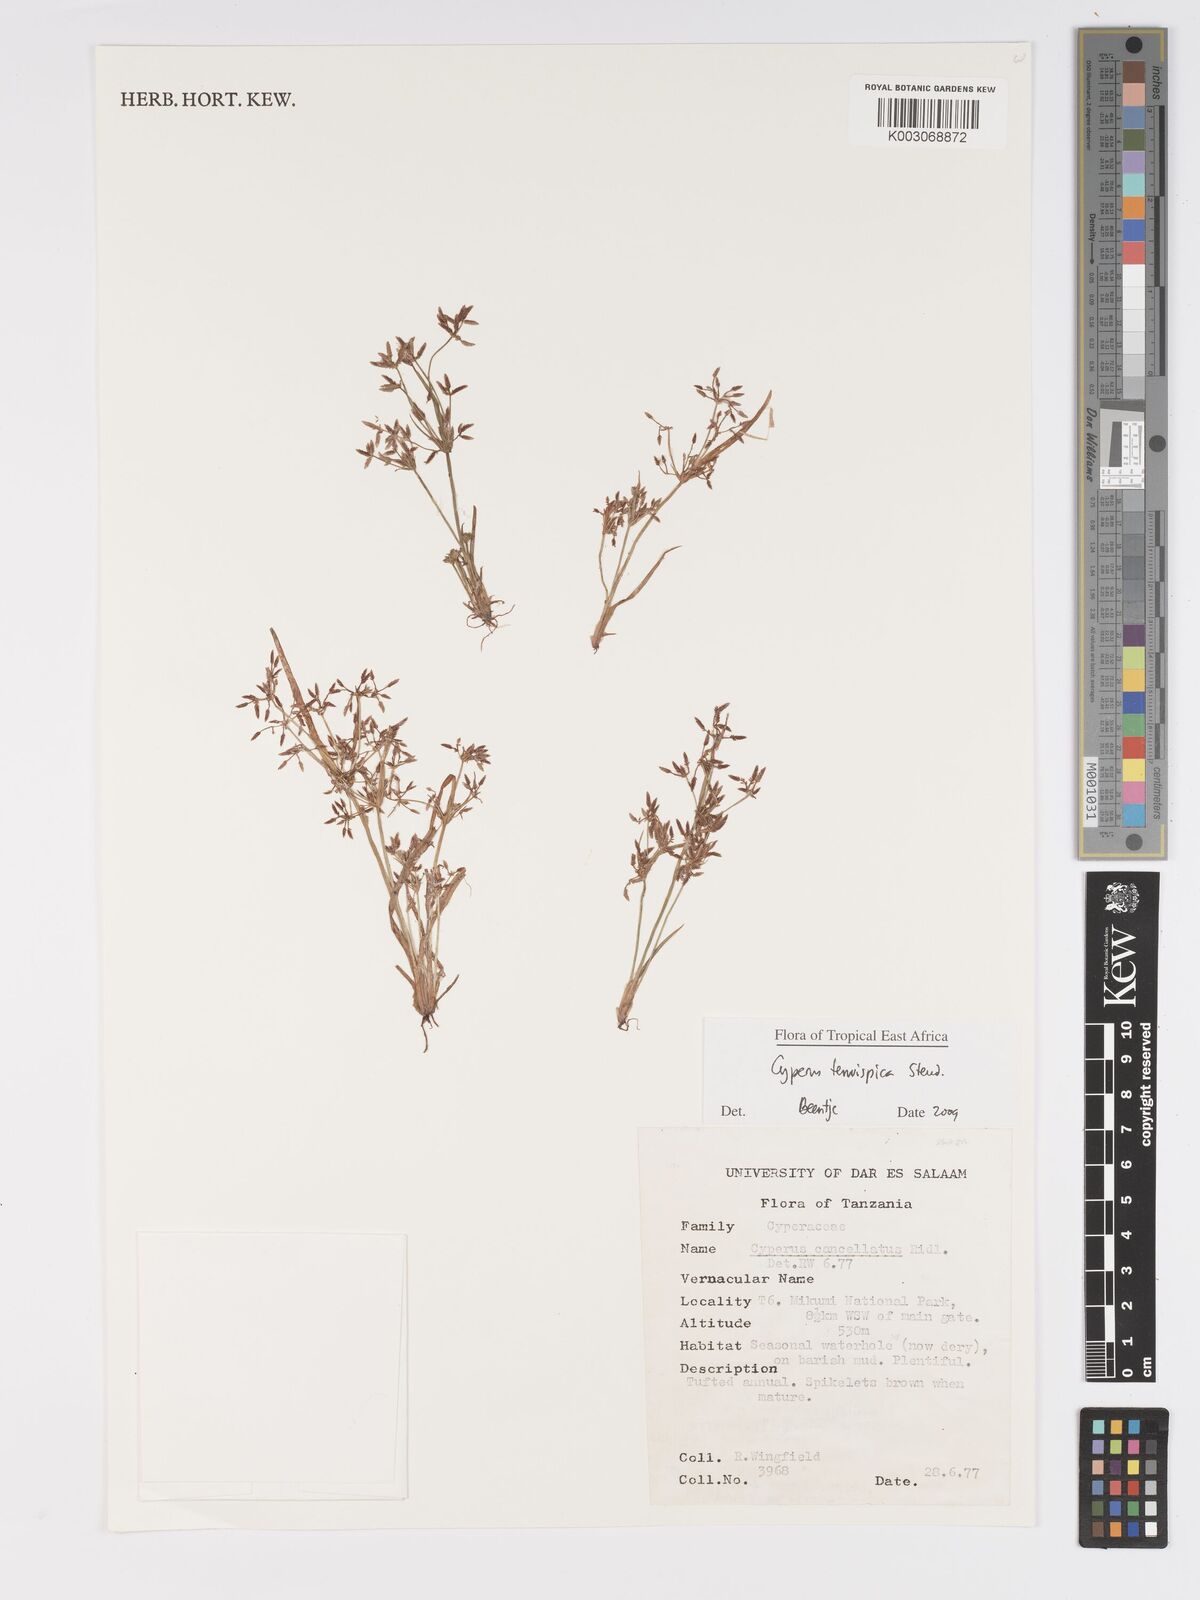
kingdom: Plantae
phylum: Tracheophyta
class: Liliopsida
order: Poales
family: Cyperaceae
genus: Cyperus
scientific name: Cyperus tenuispica
